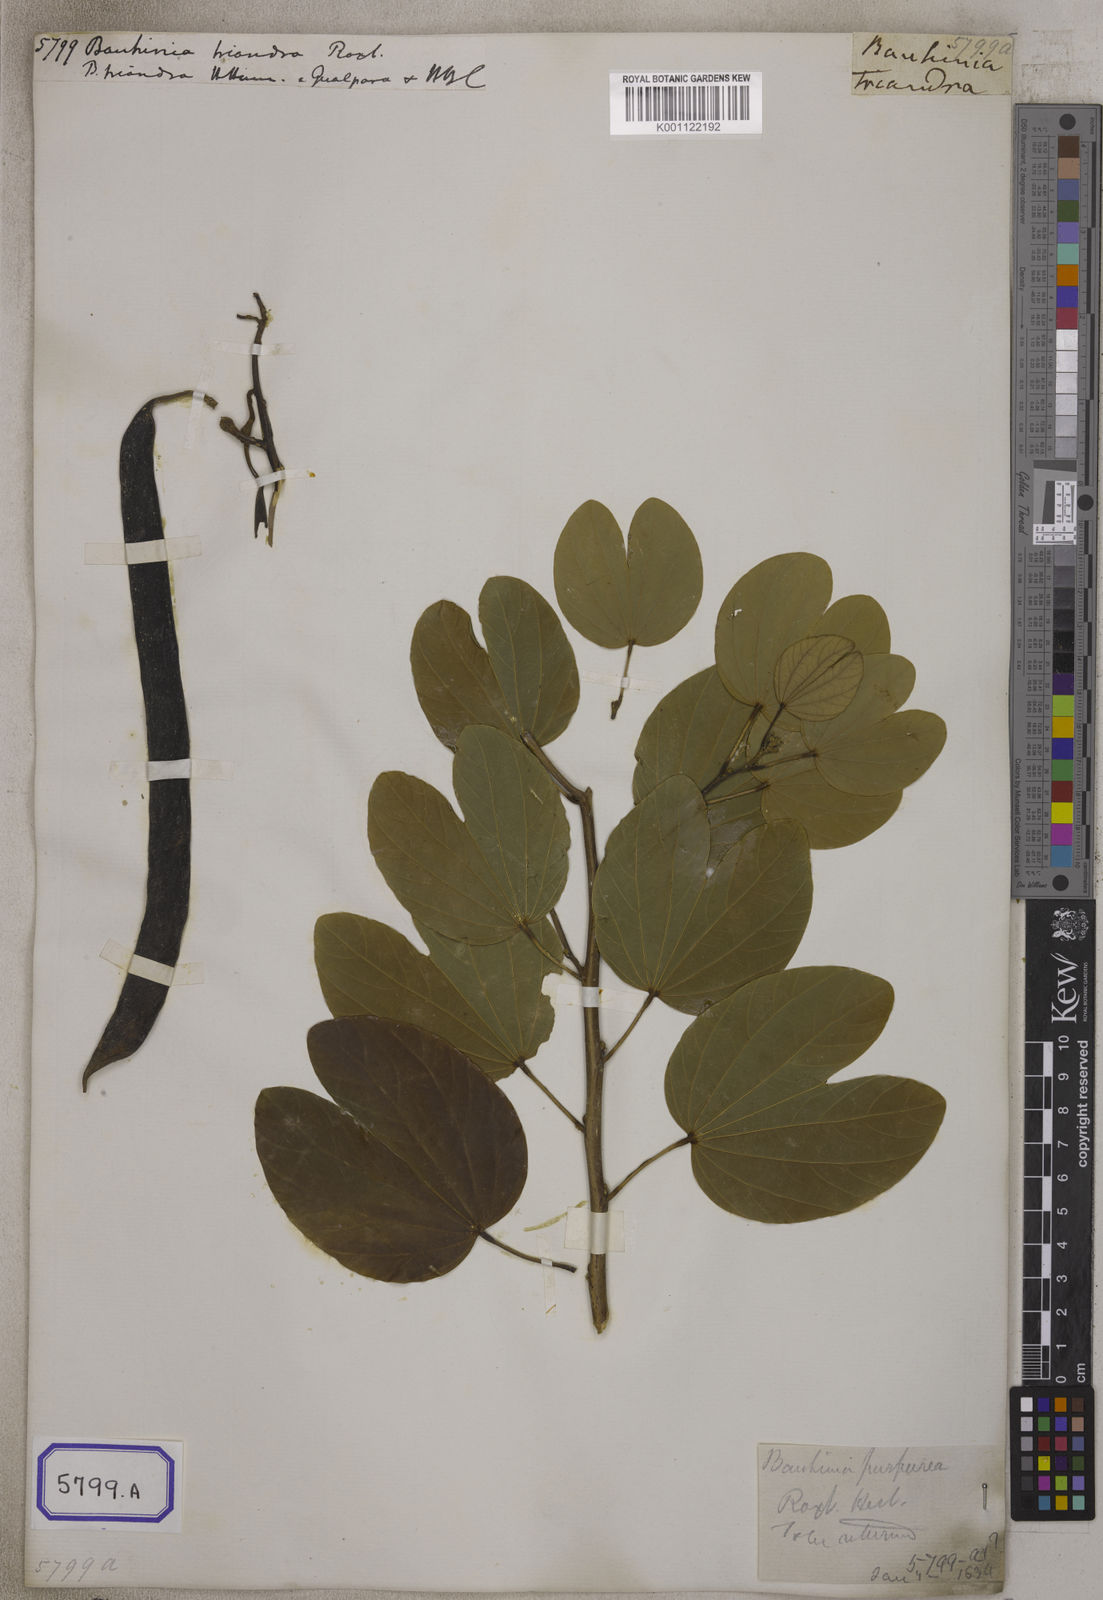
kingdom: Plantae
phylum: Tracheophyta
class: Magnoliopsida
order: Fabales
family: Fabaceae
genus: Bauhinia
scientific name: Bauhinia purpurea
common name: Butterfly-tree
